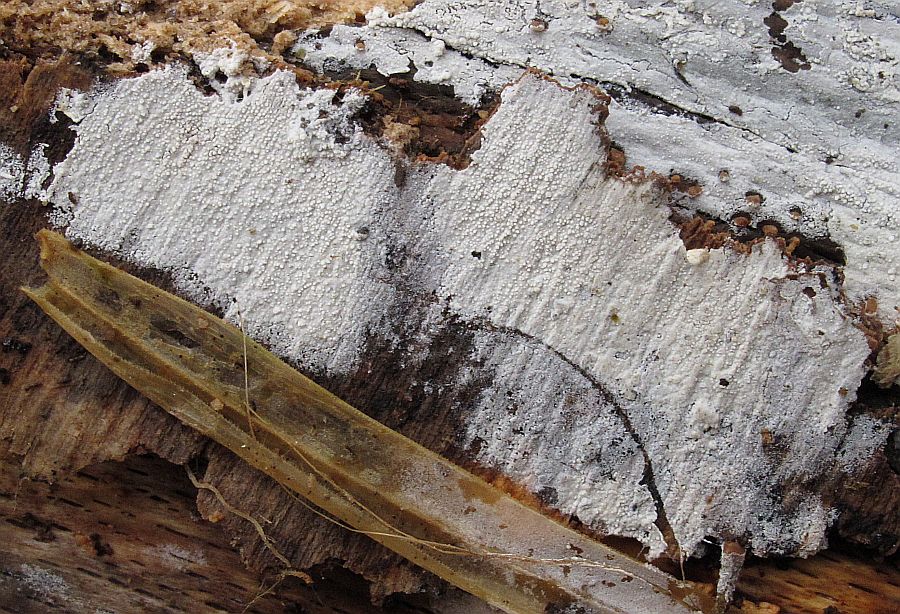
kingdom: Fungi
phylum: Basidiomycota
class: Agaricomycetes
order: Cantharellales
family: Hydnaceae
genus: Sistotrema
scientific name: Sistotrema brinkmannii
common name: bønnesporet kroneskorpe
